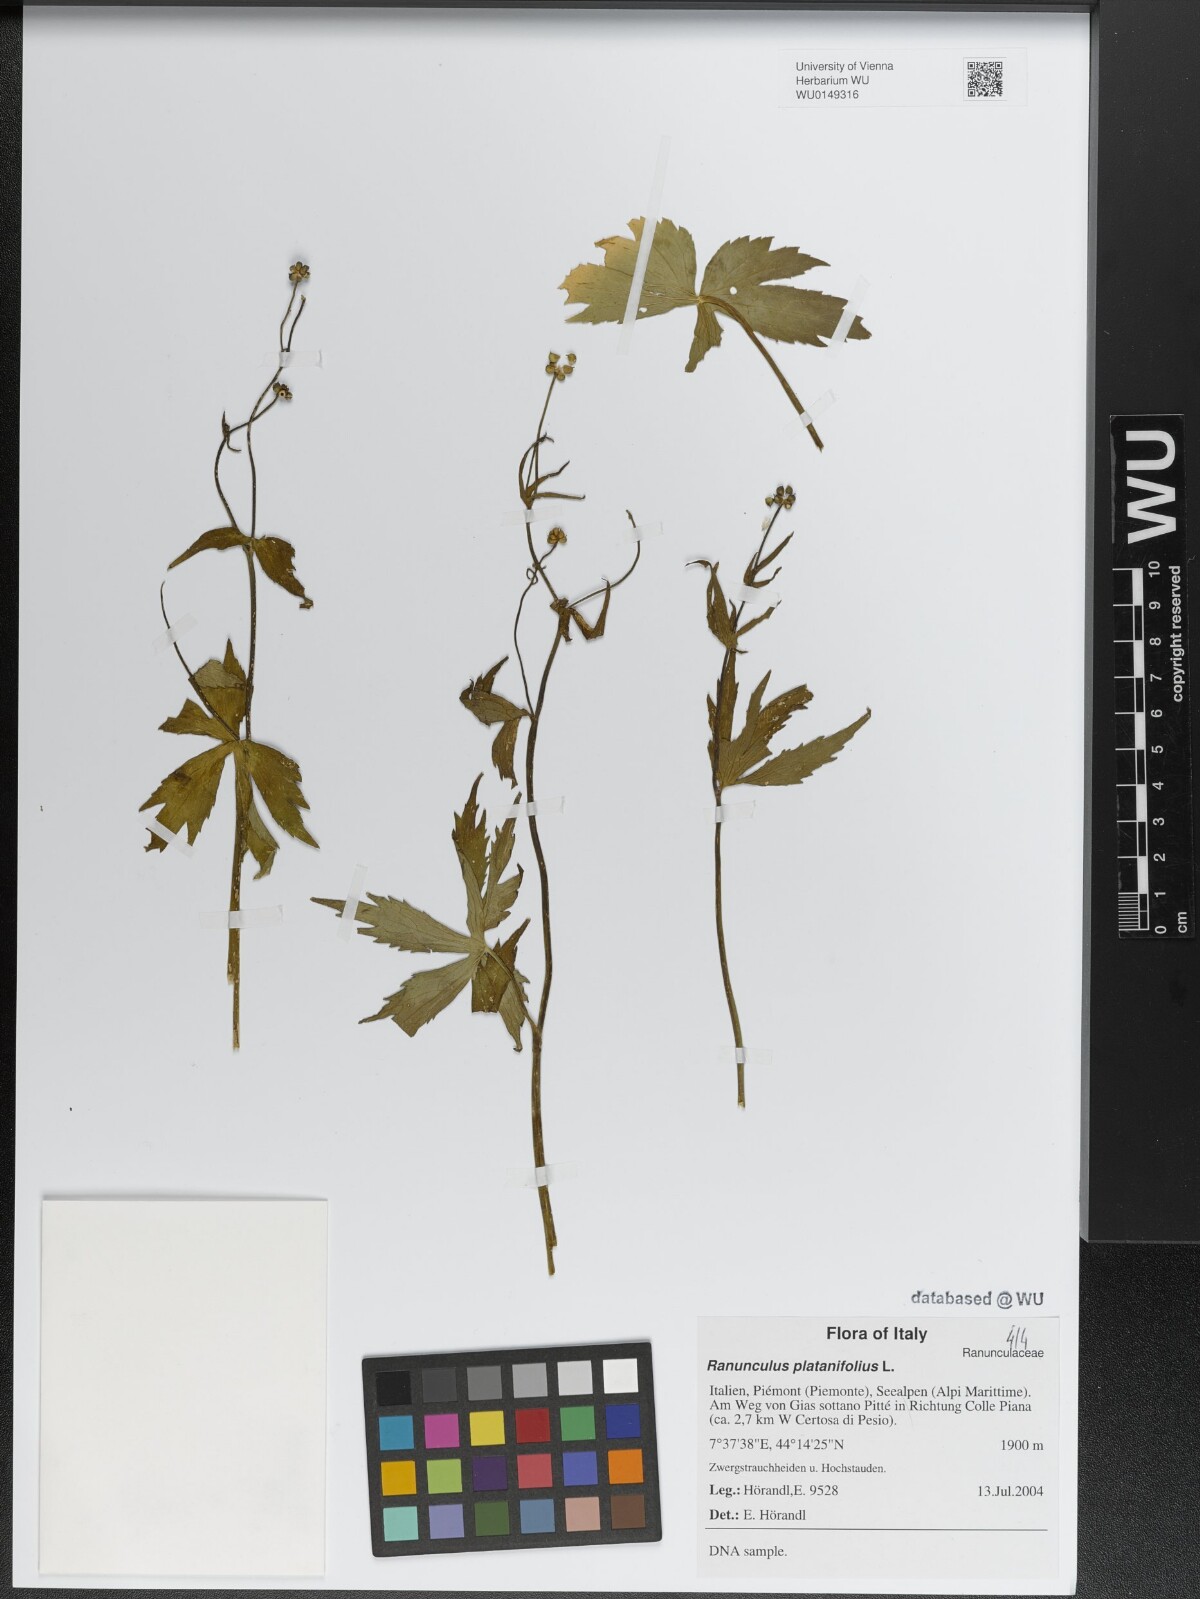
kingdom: Plantae
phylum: Tracheophyta
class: Magnoliopsida
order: Ranunculales
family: Ranunculaceae
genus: Ranunculus
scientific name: Ranunculus platanifolius
